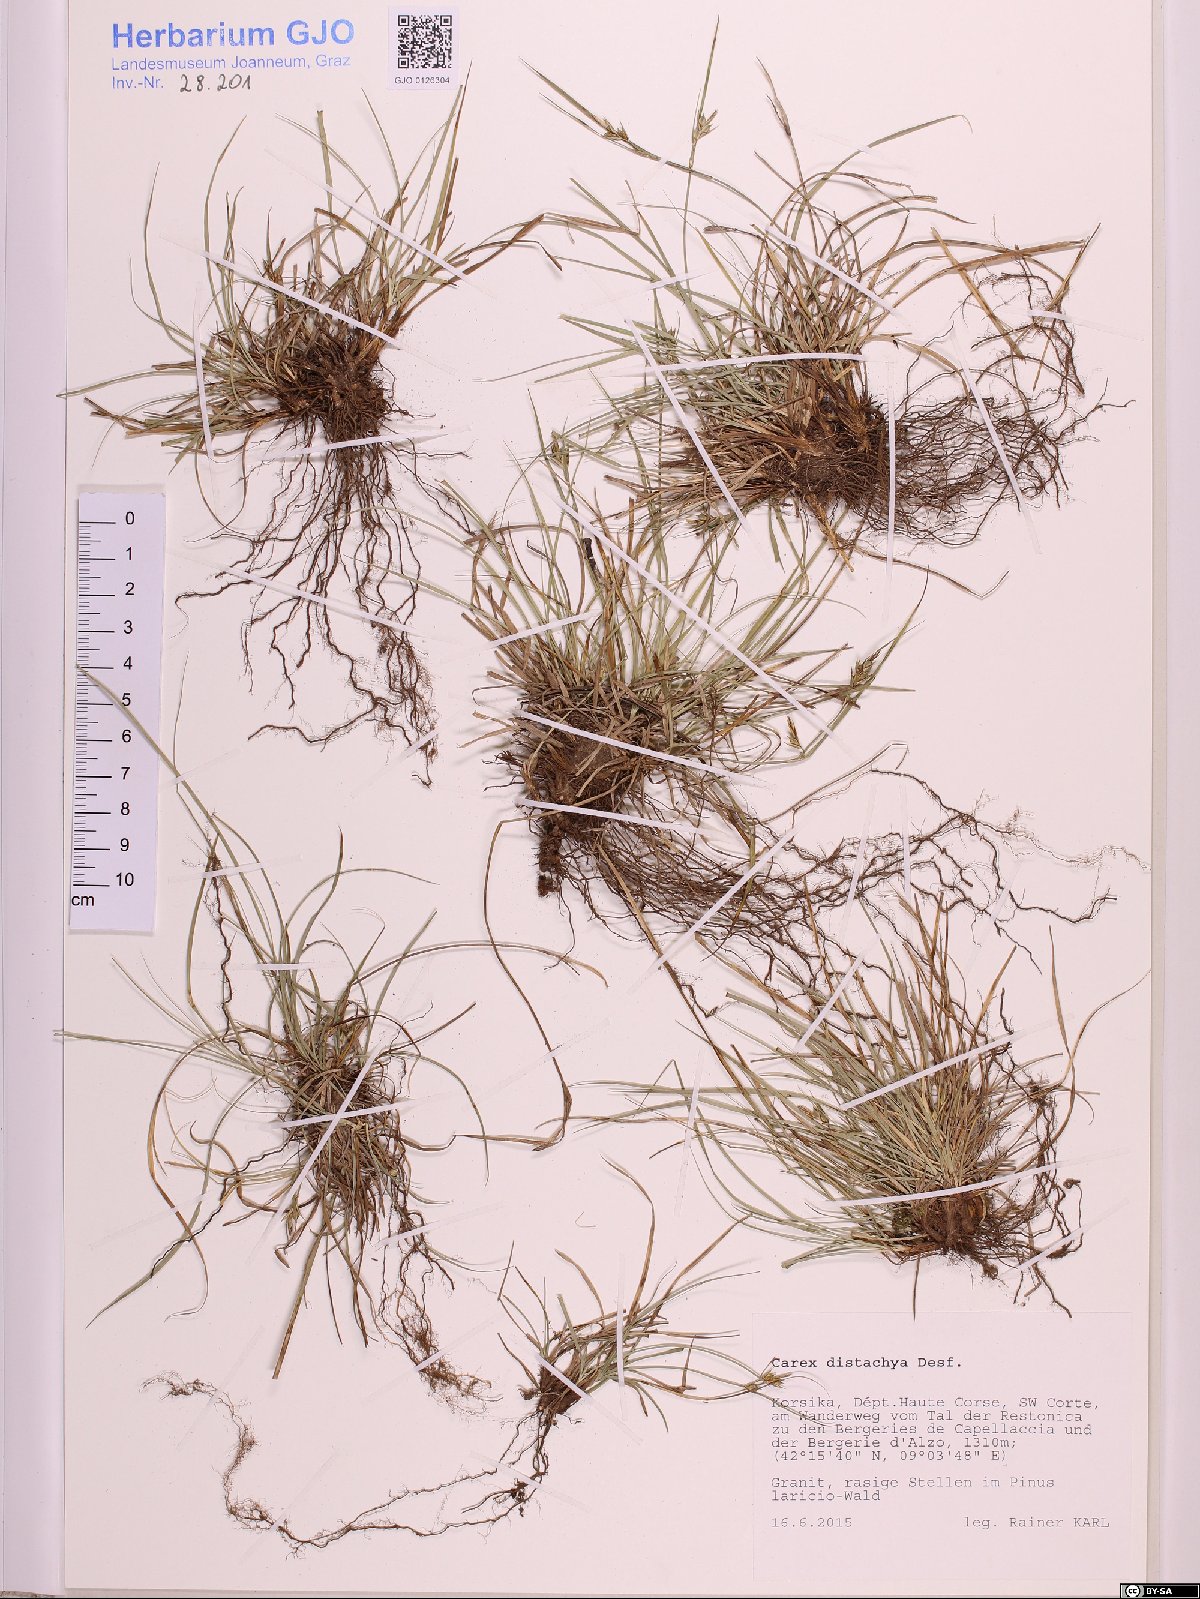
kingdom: Plantae
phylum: Tracheophyta
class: Liliopsida
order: Poales
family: Cyperaceae
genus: Carex
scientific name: Carex distachya
